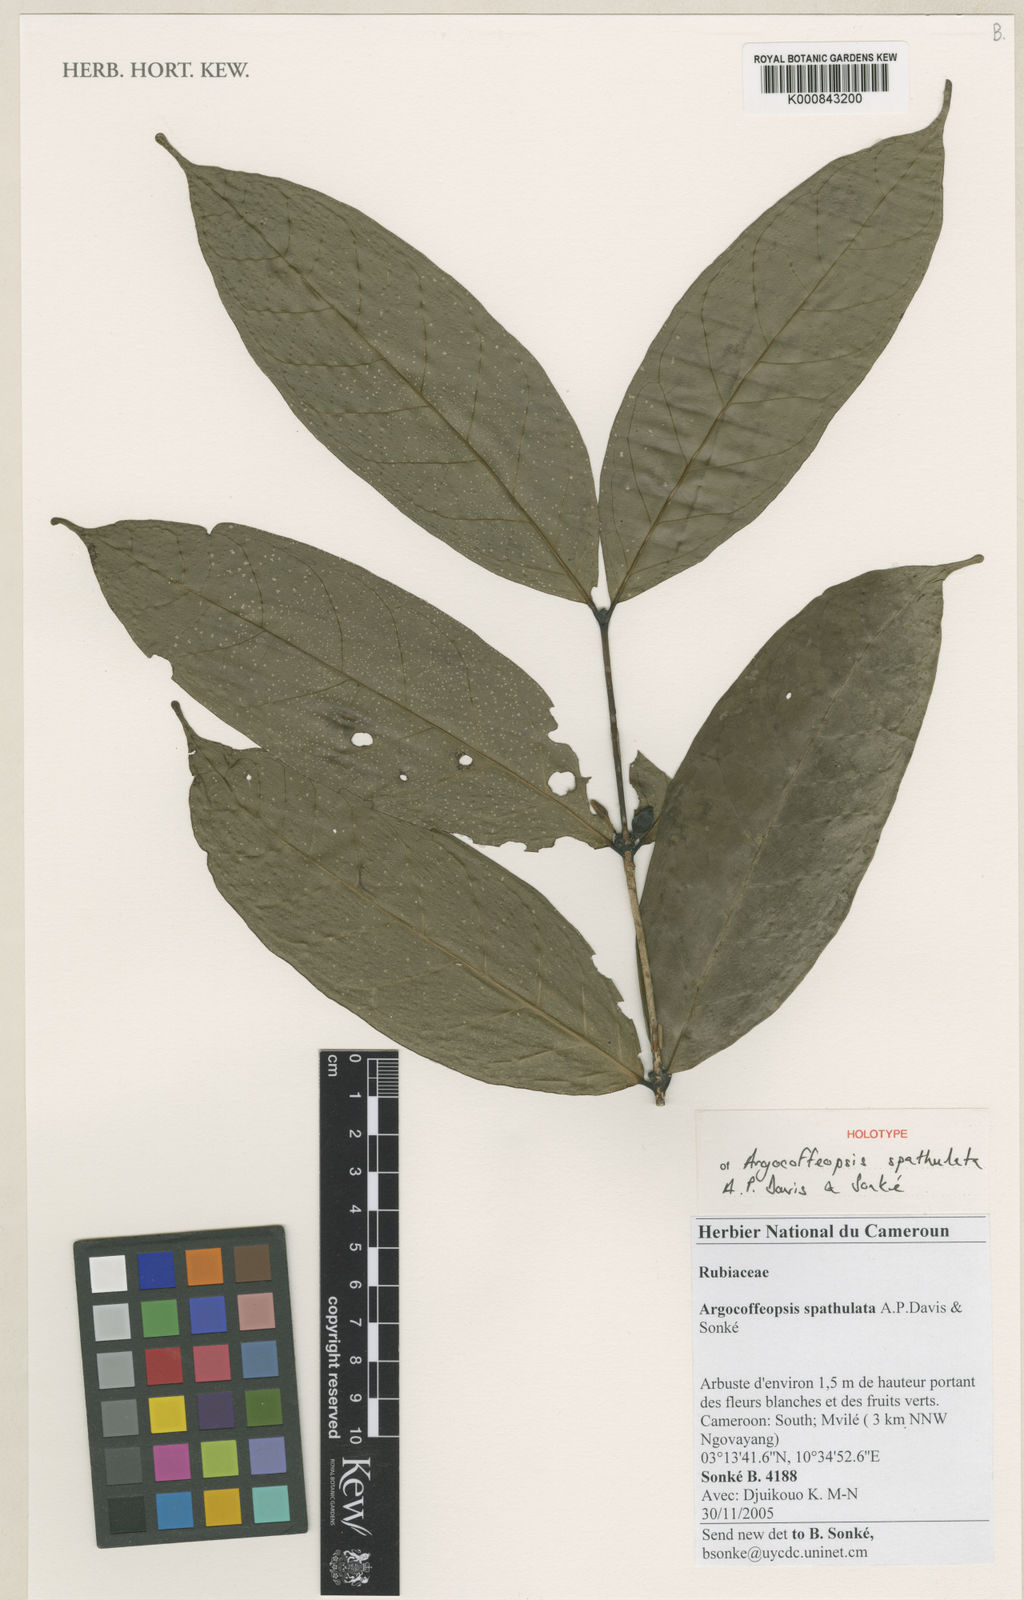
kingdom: Plantae
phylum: Tracheophyta
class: Magnoliopsida
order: Gentianales
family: Rubiaceae
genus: Kupeantha
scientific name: Kupeantha
